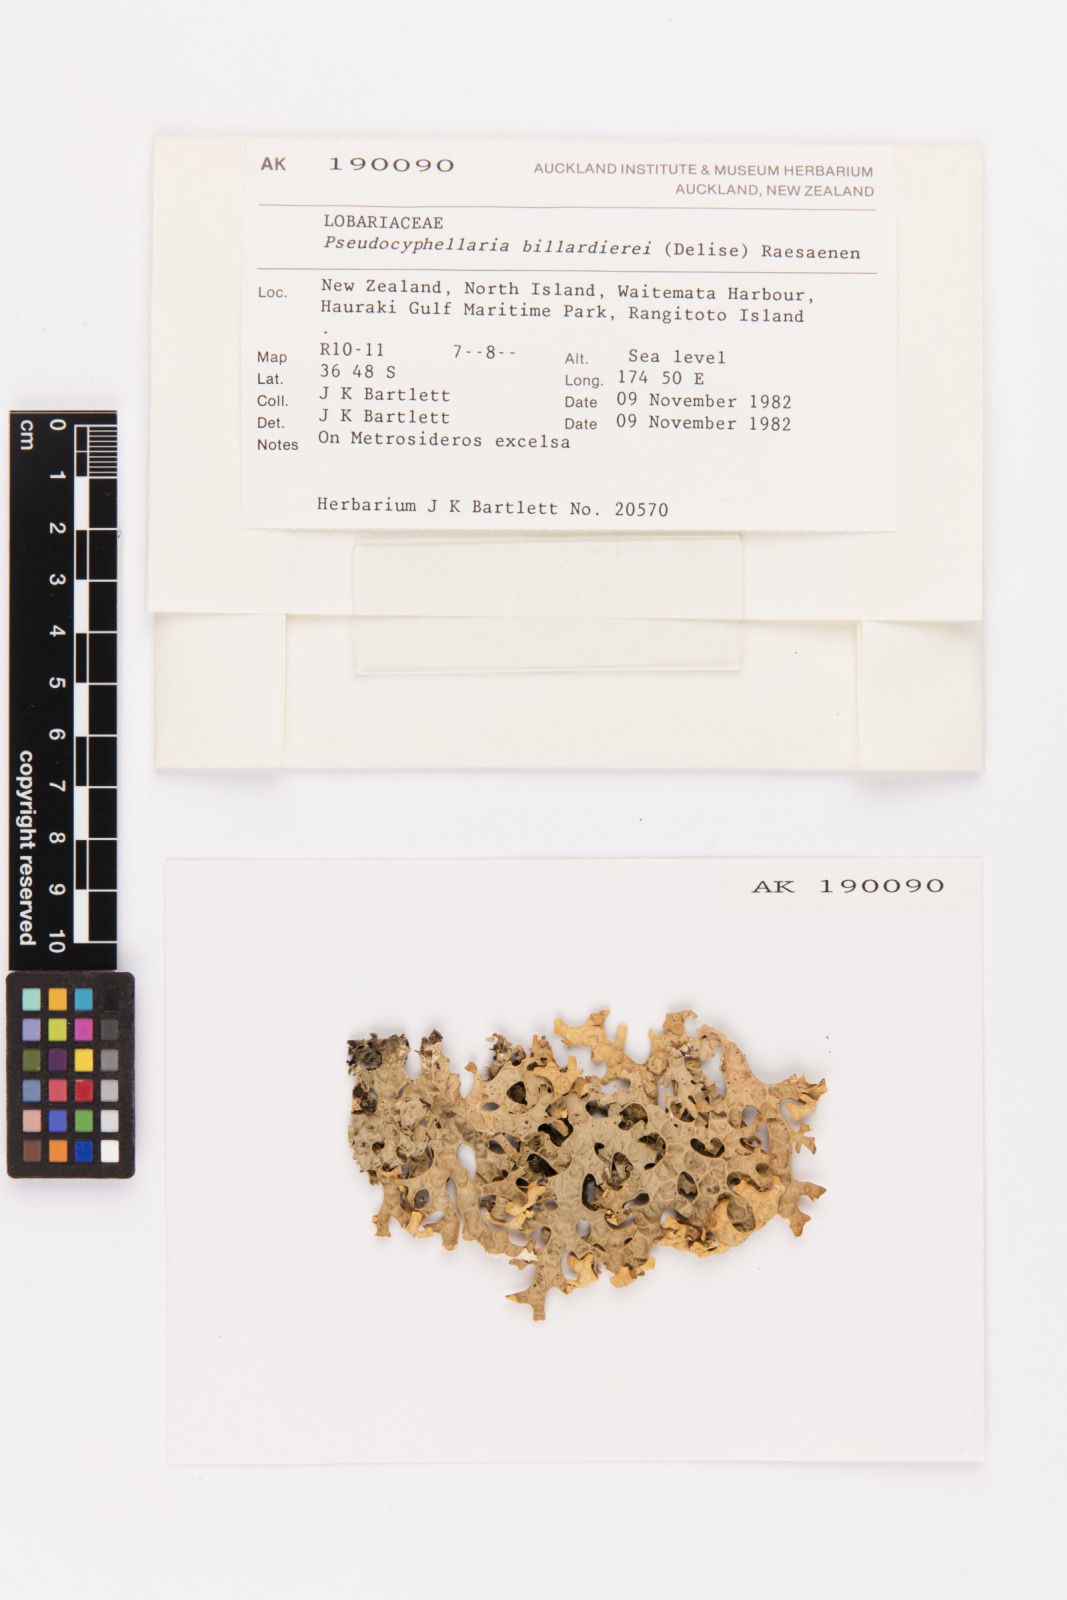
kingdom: Fungi
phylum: Ascomycota
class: Lecanoromycetes
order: Peltigerales
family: Lobariaceae
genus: Pseudocyphellaria
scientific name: Pseudocyphellaria billardierei
